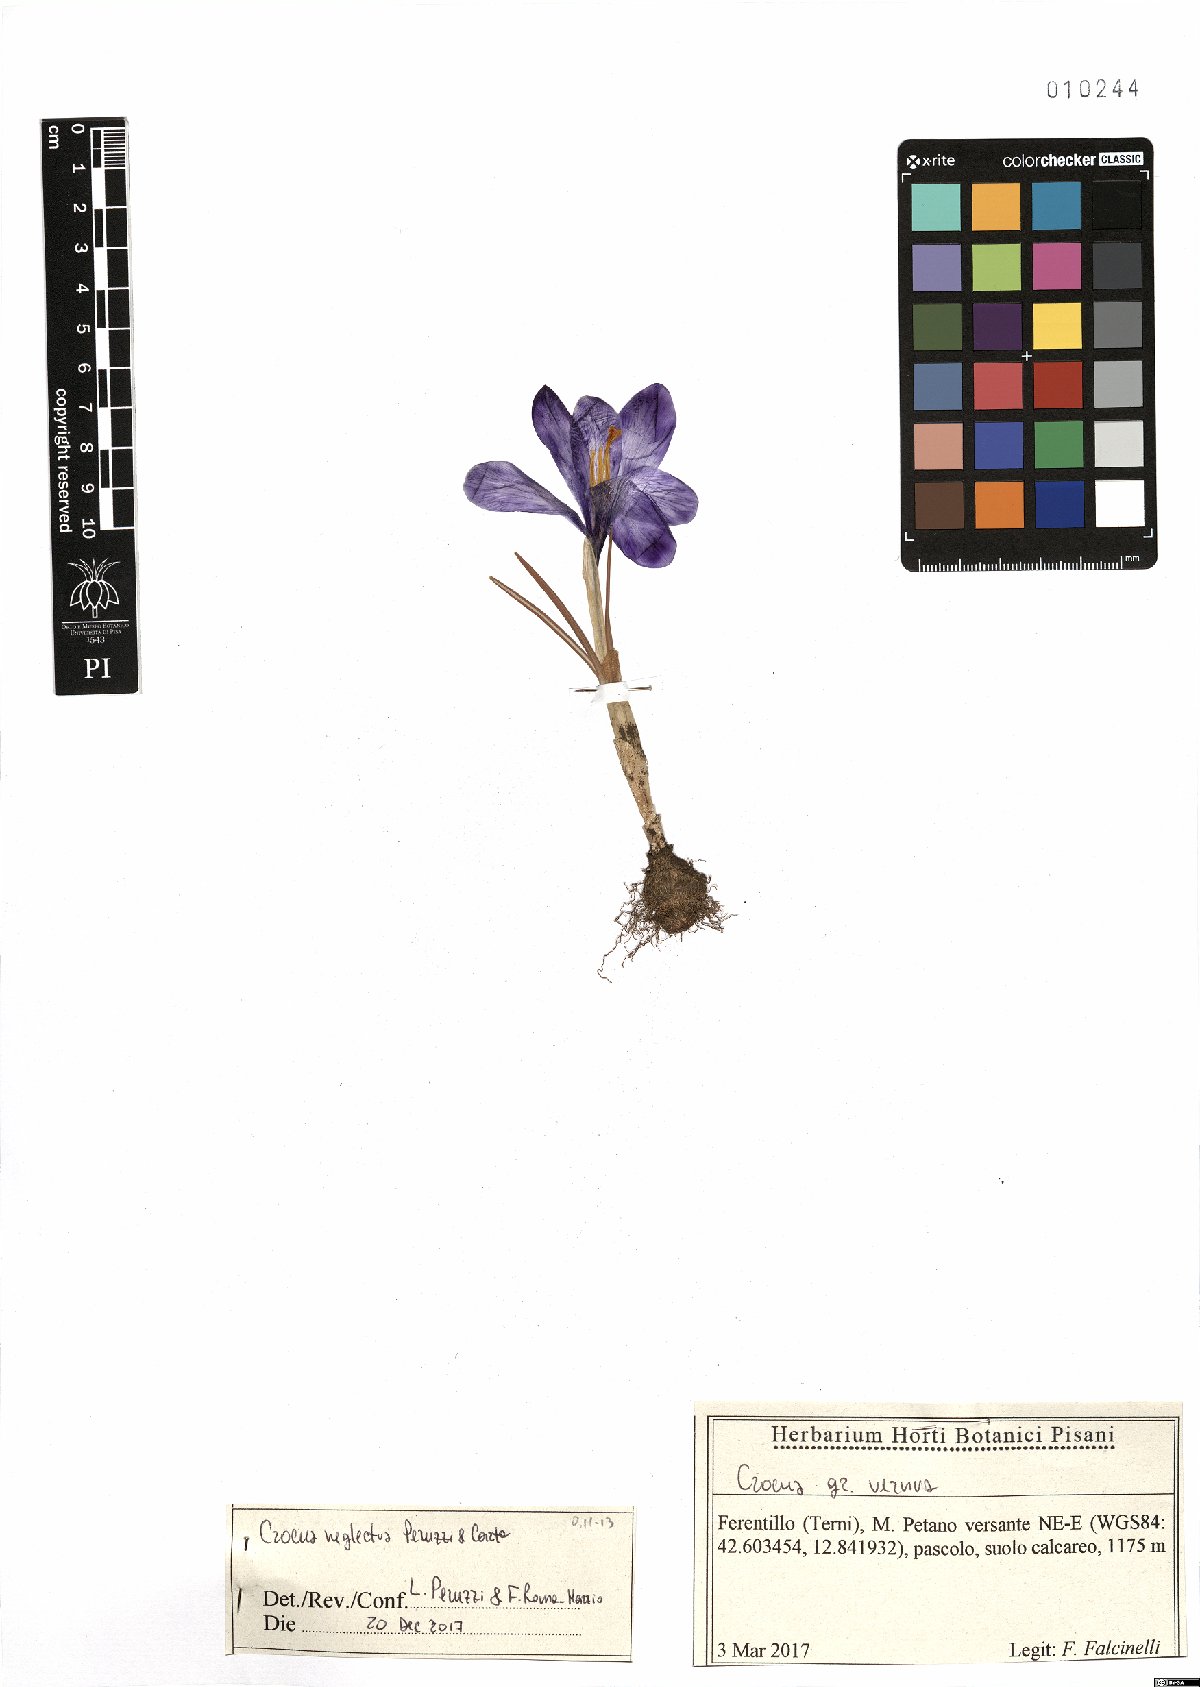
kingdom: Plantae
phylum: Tracheophyta
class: Liliopsida
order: Asparagales
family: Iridaceae
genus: Crocus
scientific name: Crocus neglectus
